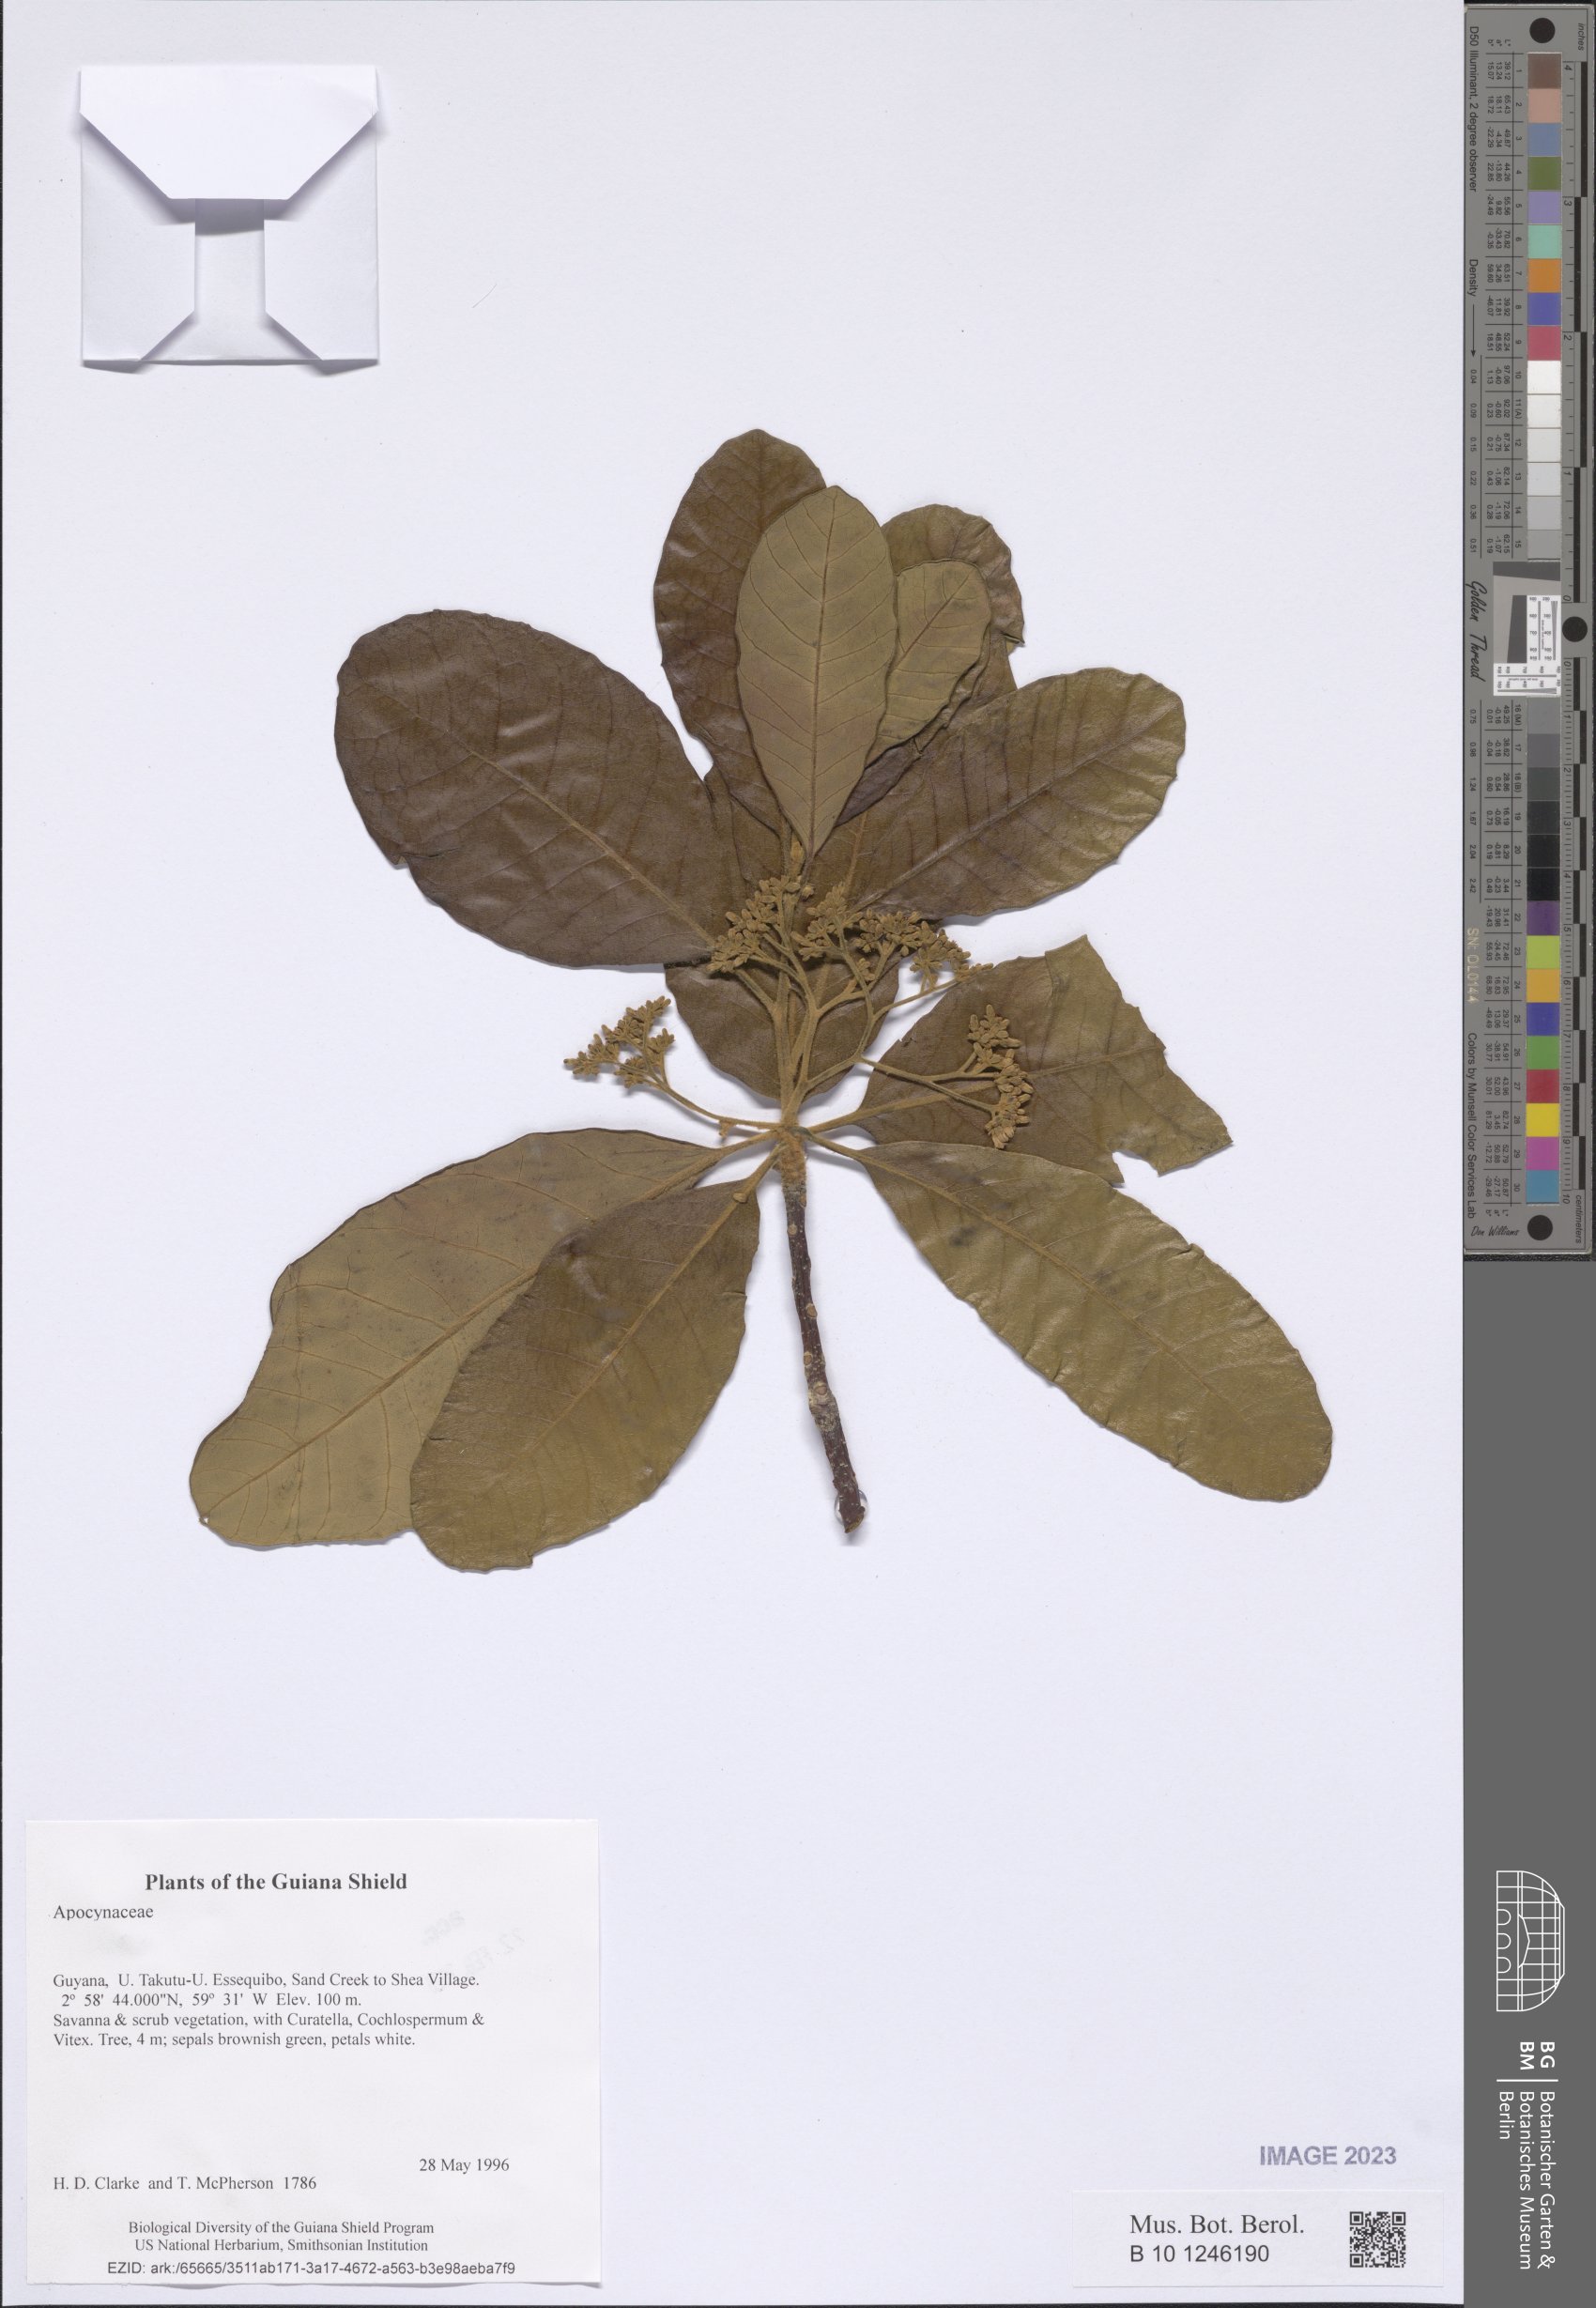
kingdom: Plantae
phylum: Tracheophyta
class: Magnoliopsida
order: Gentianales
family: Apocynaceae
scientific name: Apocynaceae
